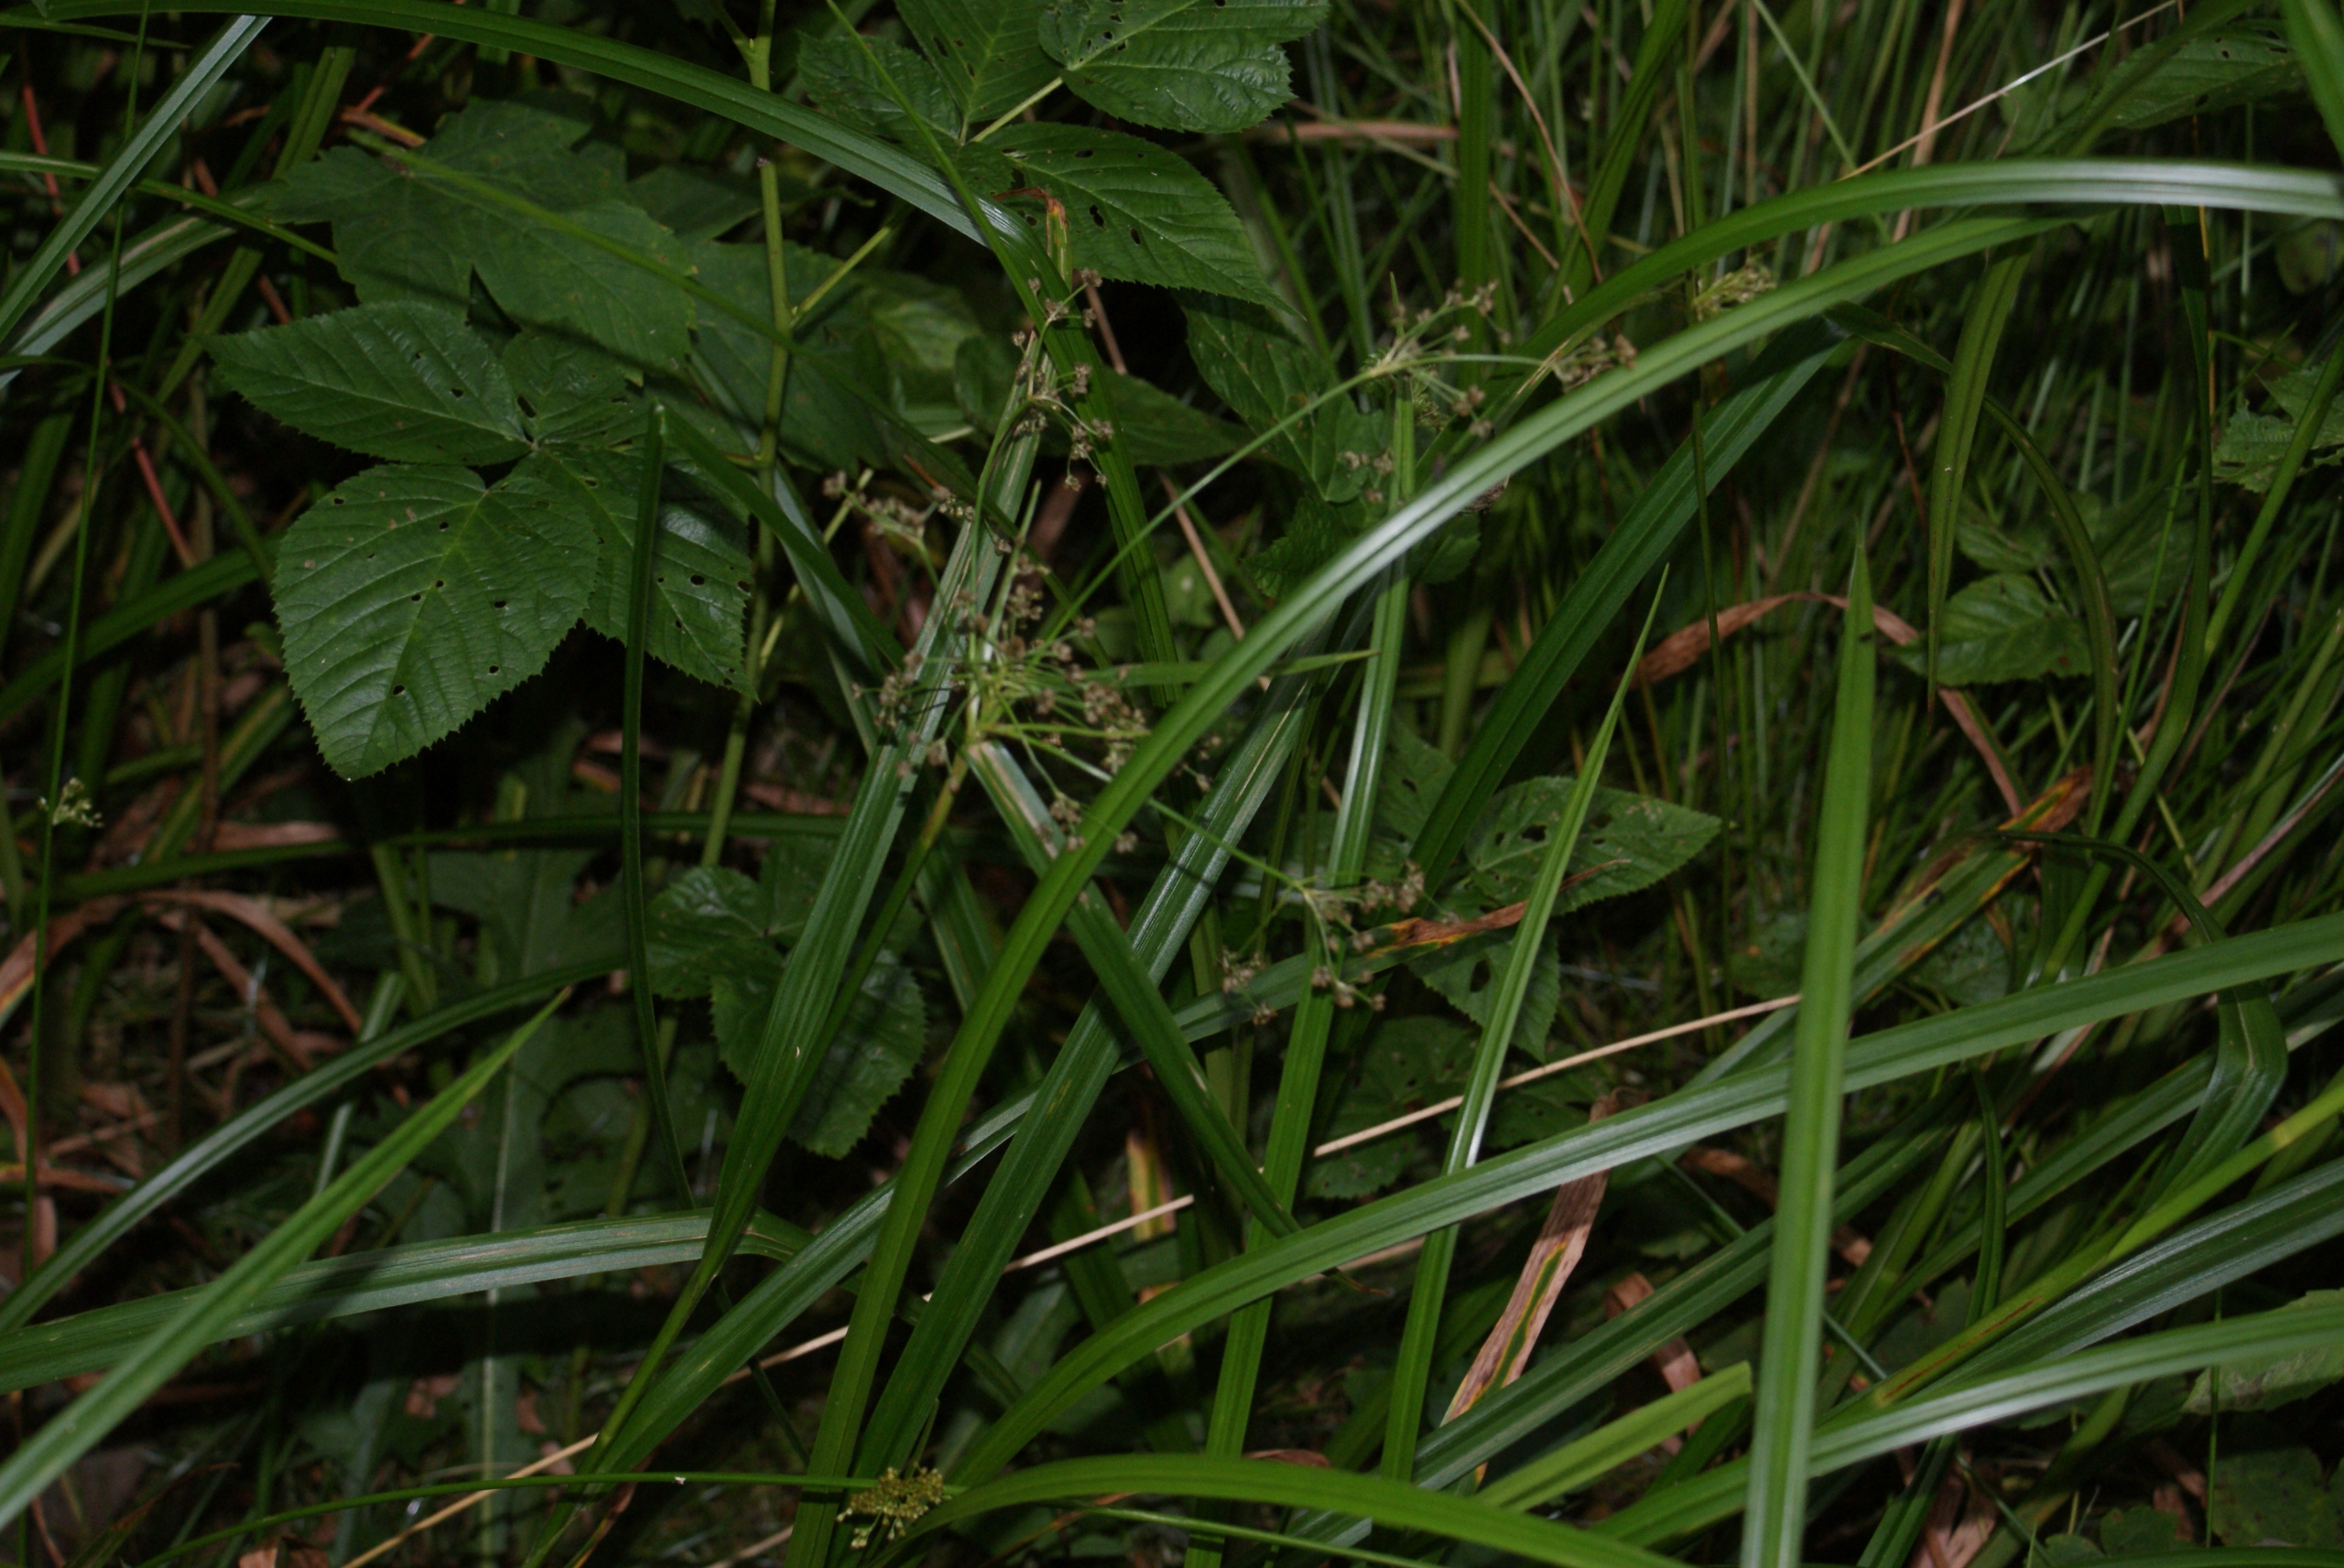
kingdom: Plantae
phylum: Tracheophyta
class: Liliopsida
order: Poales
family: Cyperaceae
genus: Scirpus
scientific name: Scirpus sylvaticus
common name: Skov-kogleaks
